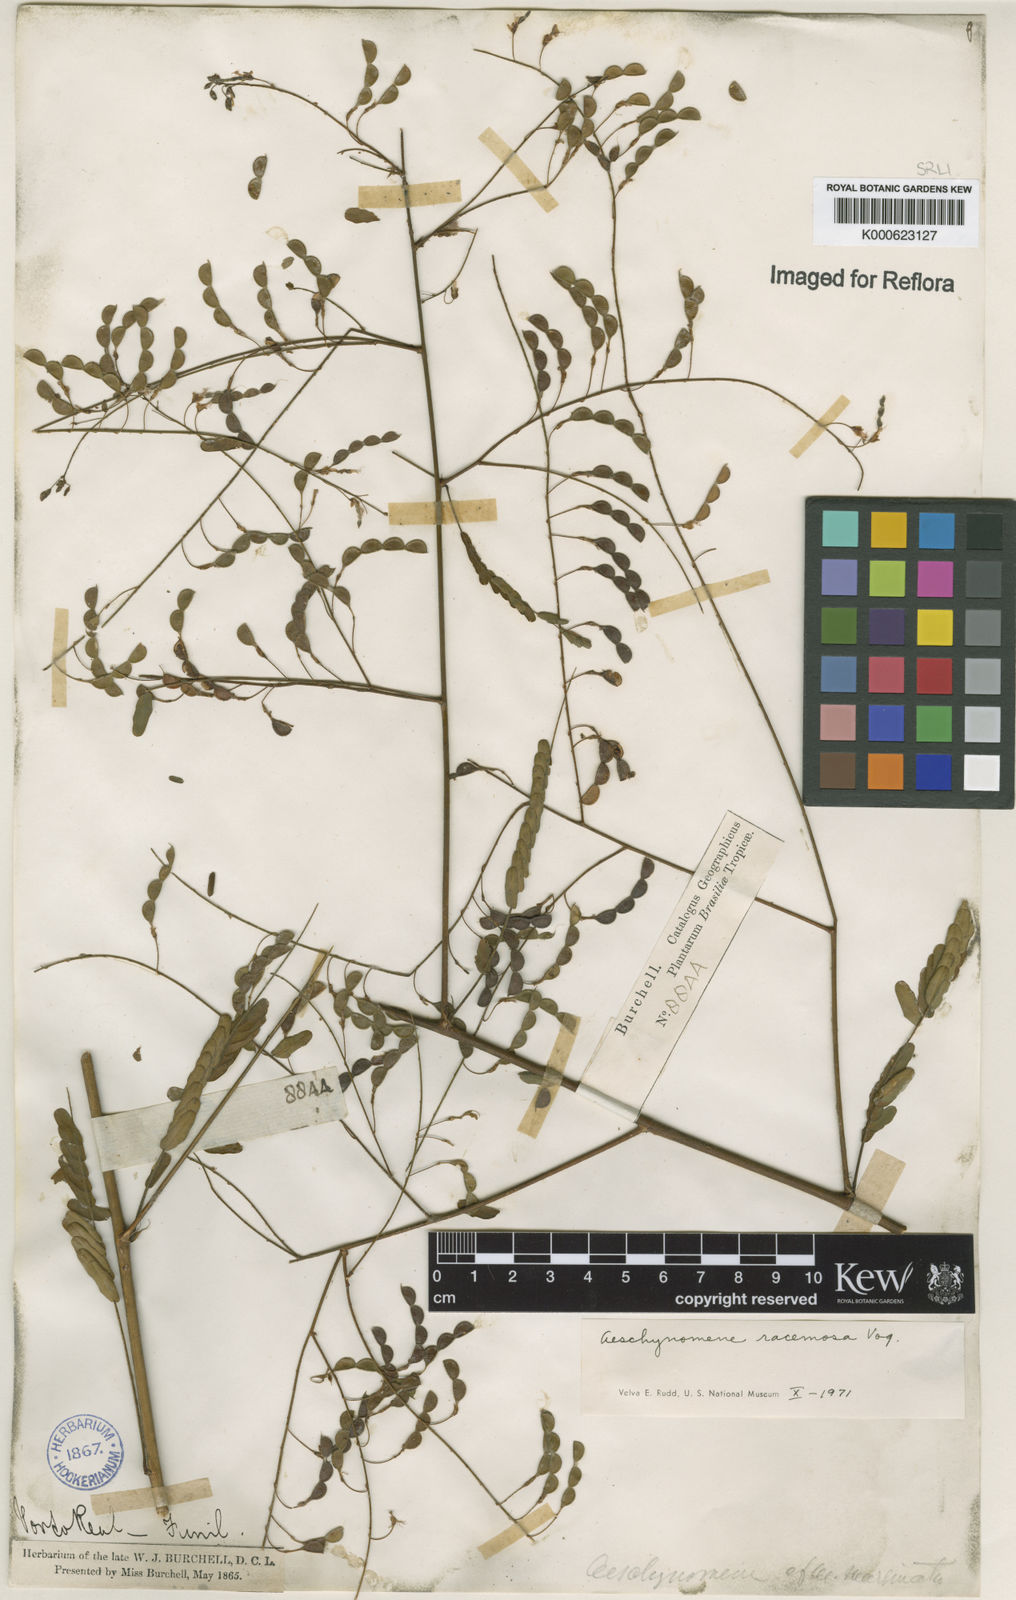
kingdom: Plantae
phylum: Tracheophyta
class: Magnoliopsida
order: Fabales
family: Fabaceae
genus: Ctenodon
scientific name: Ctenodon racemosus
